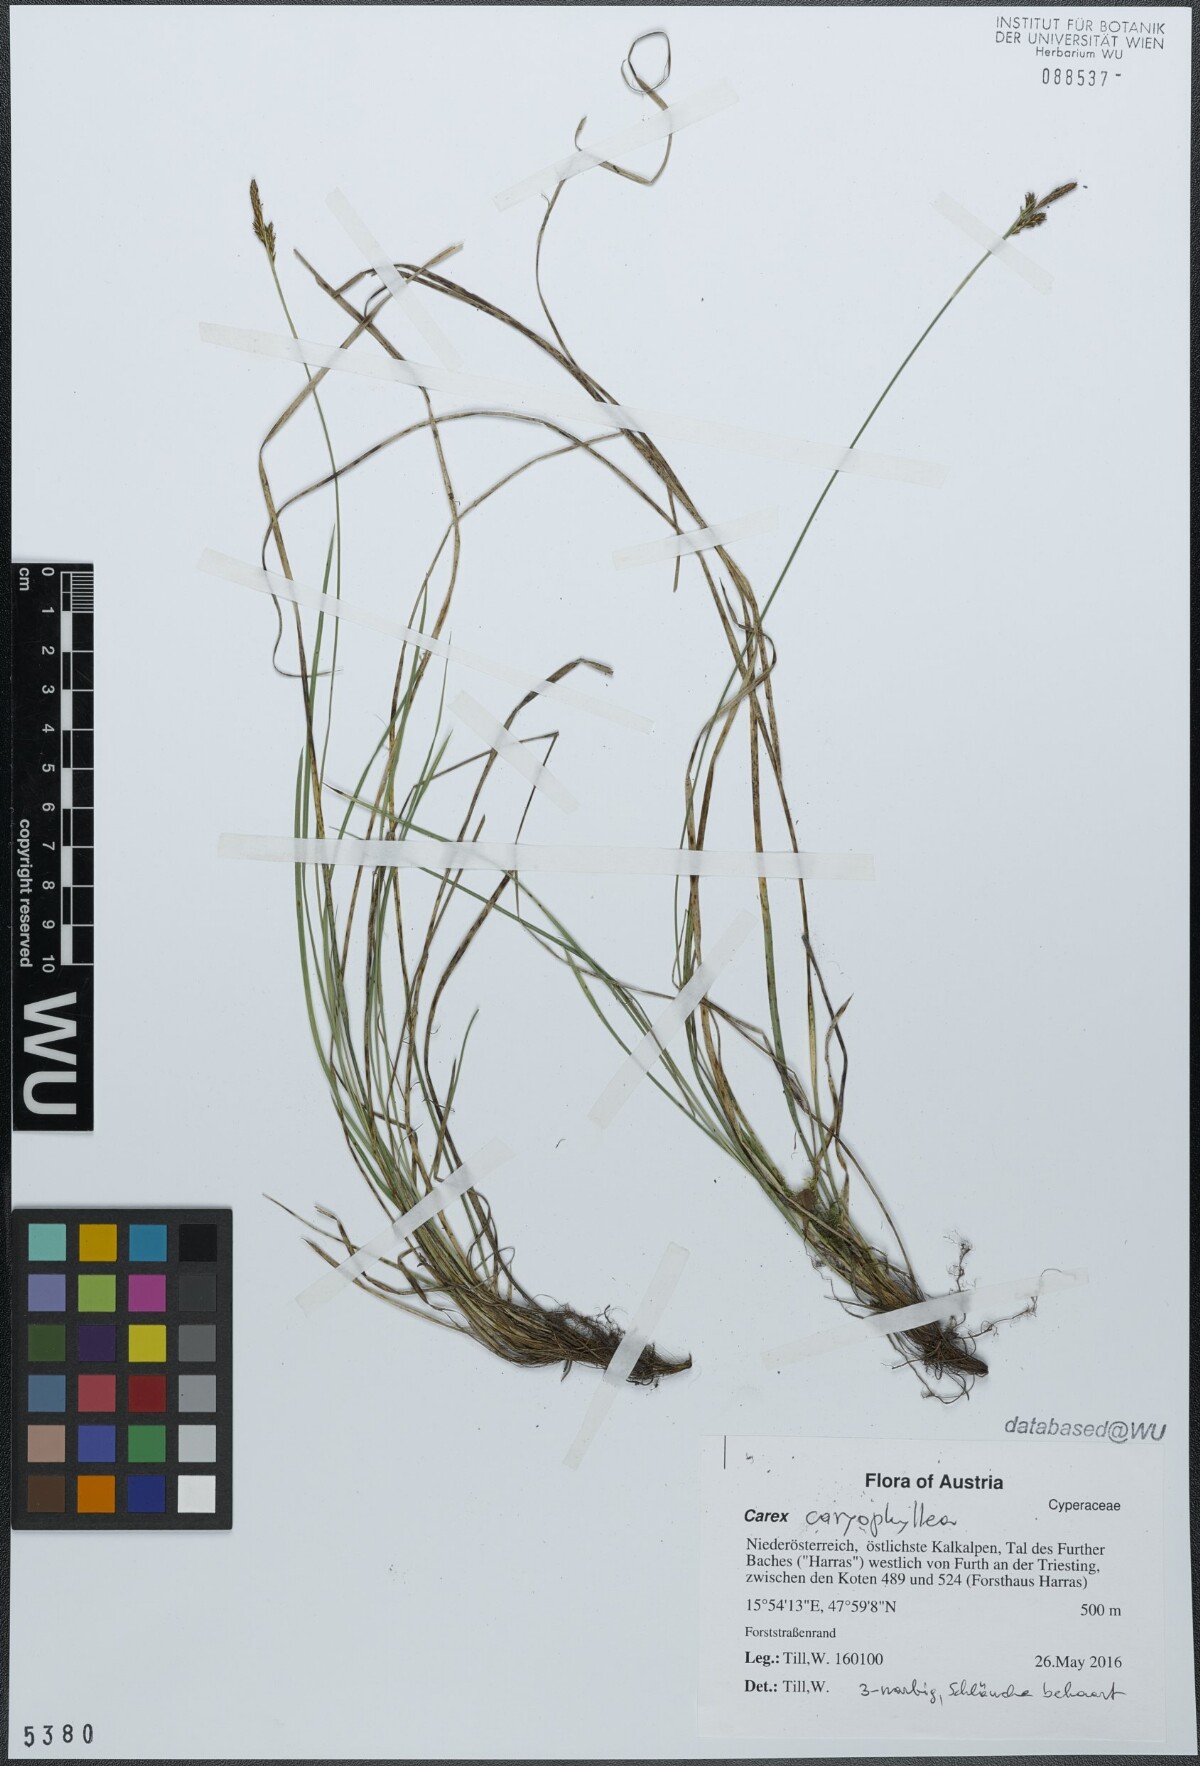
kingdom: Plantae
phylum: Tracheophyta
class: Liliopsida
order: Poales
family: Cyperaceae
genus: Carex
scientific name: Carex caryophyllea
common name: Spring sedge
